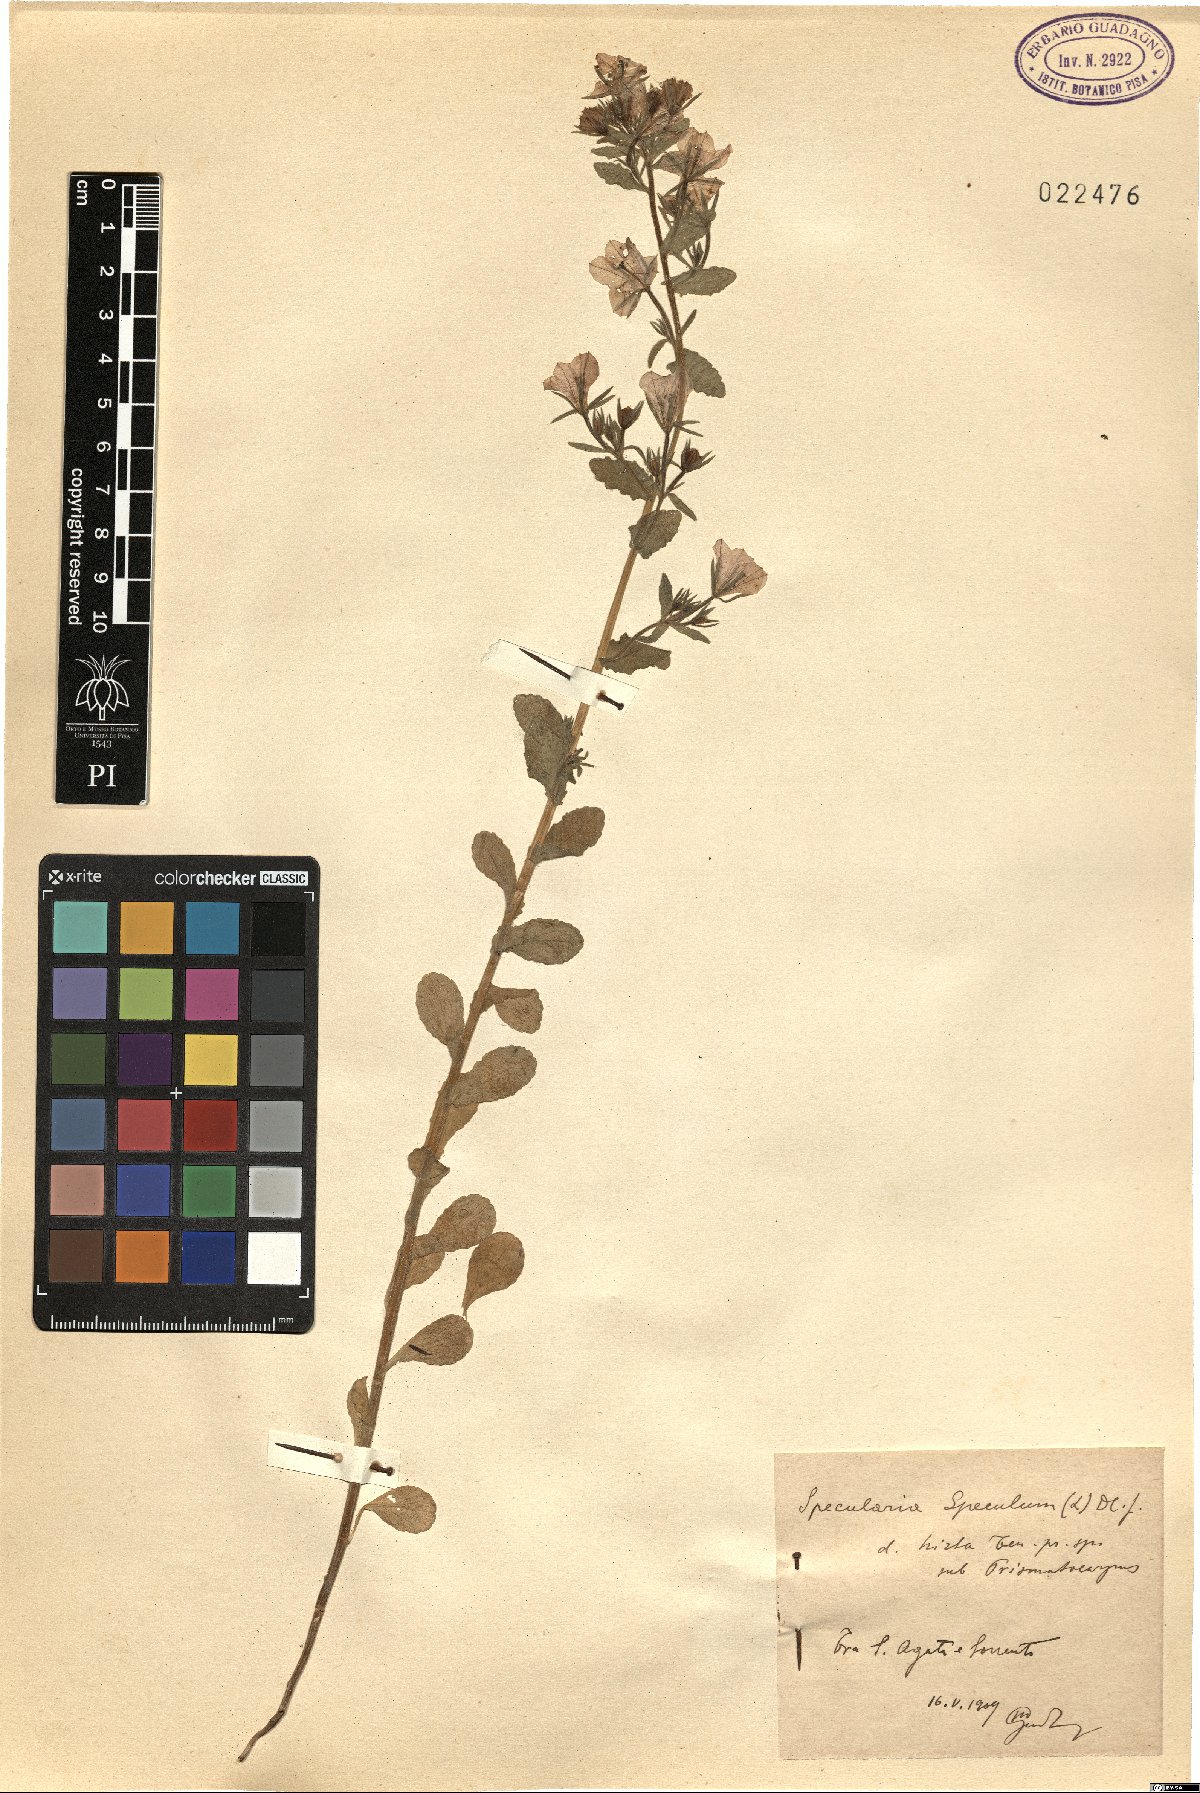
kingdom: Plantae
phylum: Tracheophyta
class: Magnoliopsida
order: Asterales
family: Campanulaceae
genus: Legousia
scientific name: Legousia speculum-veneris
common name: Large venus's-looking-glass
